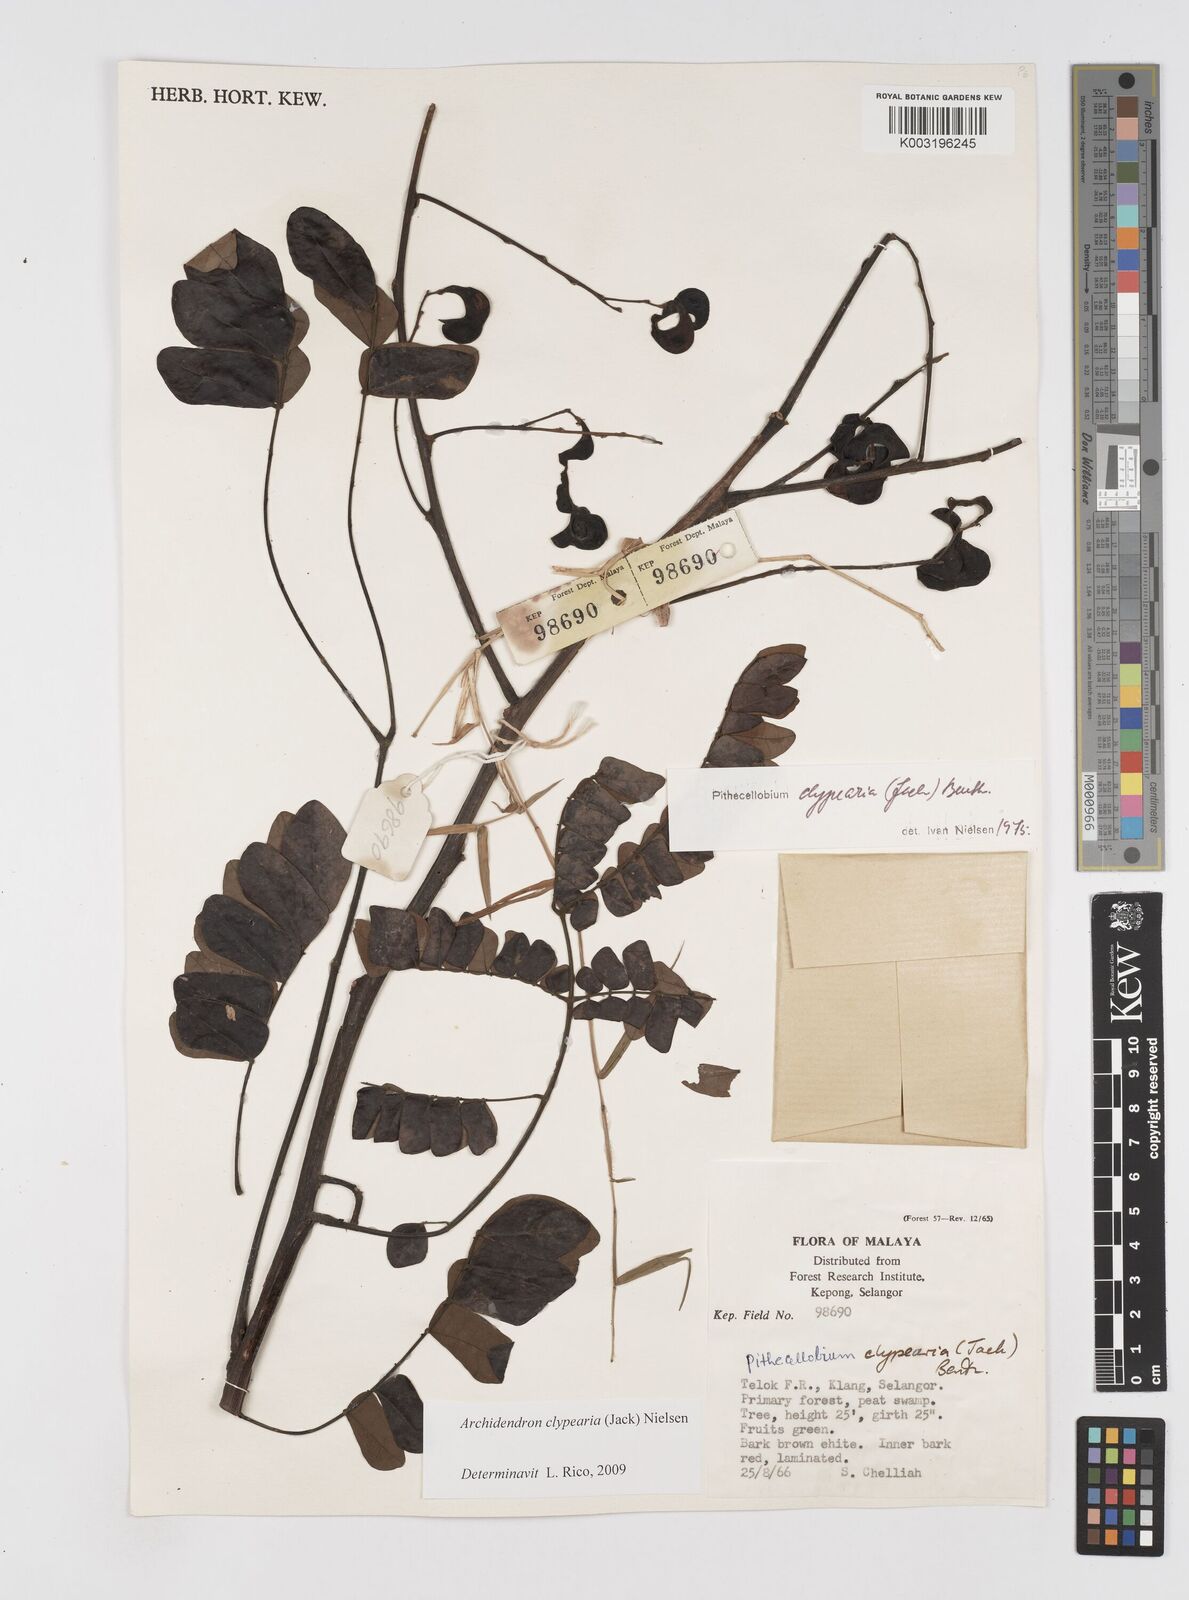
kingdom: Plantae
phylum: Tracheophyta
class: Magnoliopsida
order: Fabales
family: Fabaceae
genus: Archidendron
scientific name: Archidendron clypearia
